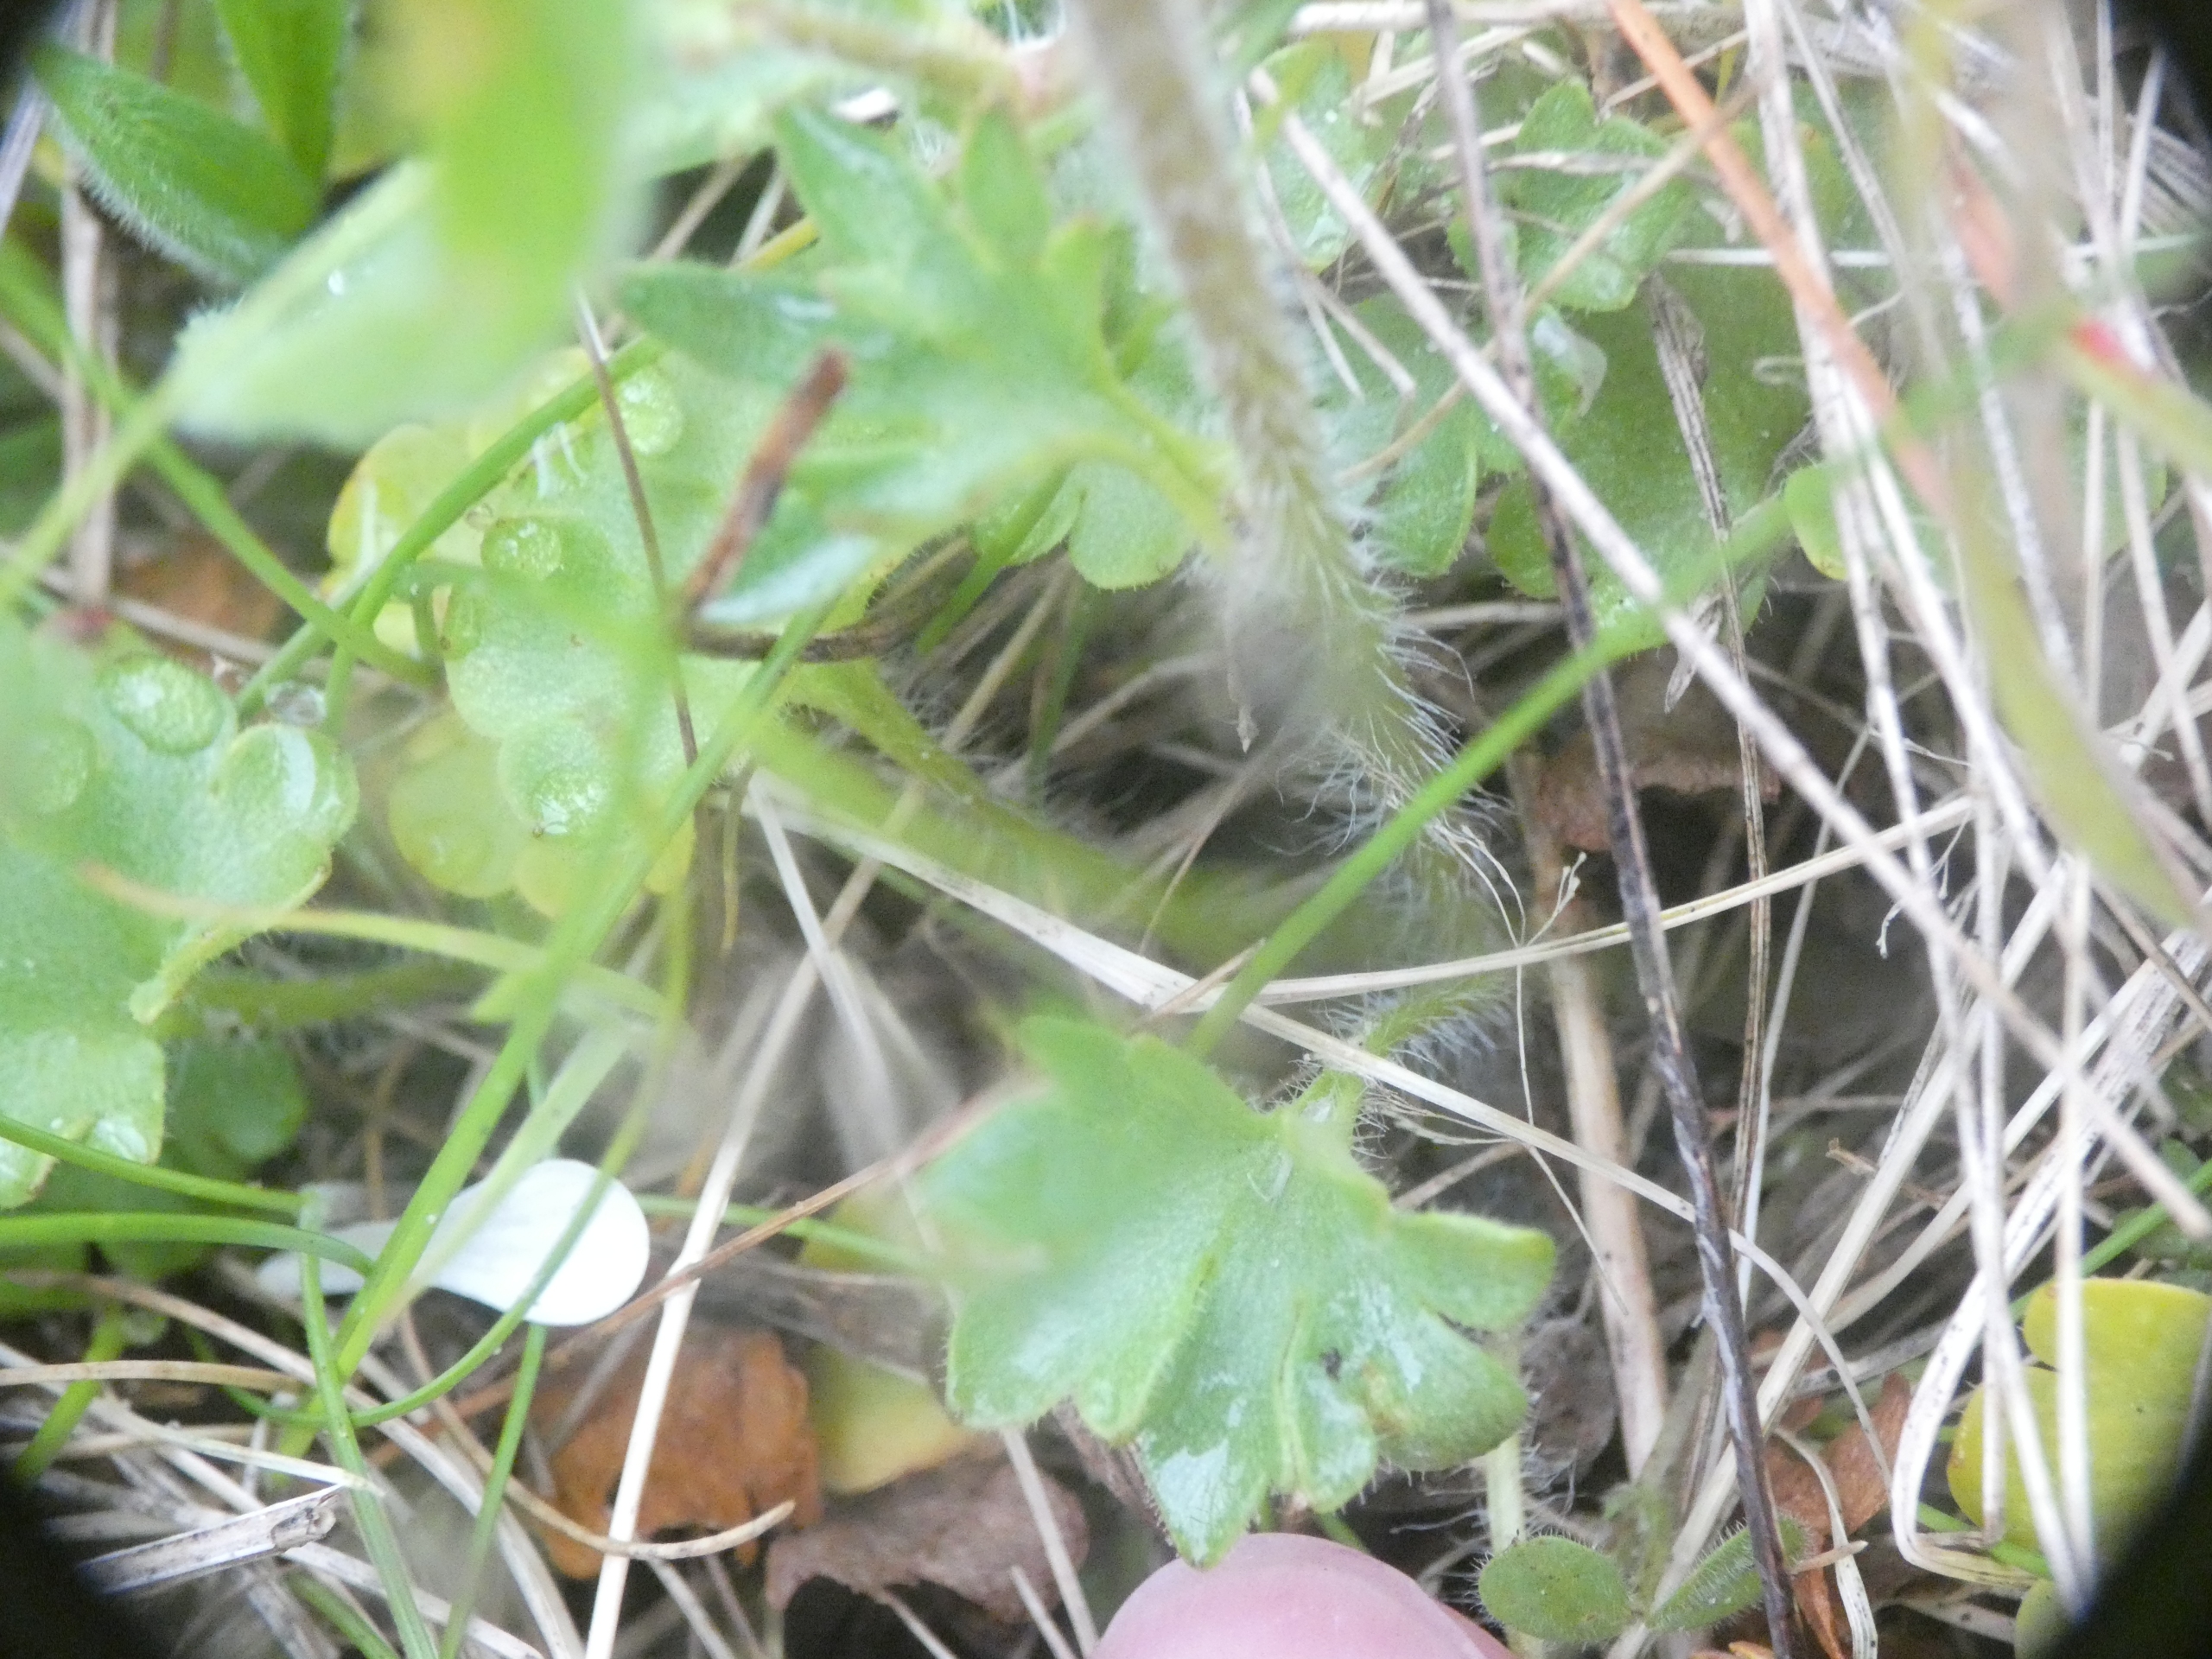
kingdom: Plantae
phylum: Tracheophyta
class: Magnoliopsida
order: Saxifragales
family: Saxifragaceae
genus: Saxifraga
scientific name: Saxifraga granulata
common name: Kornet stenbræk
